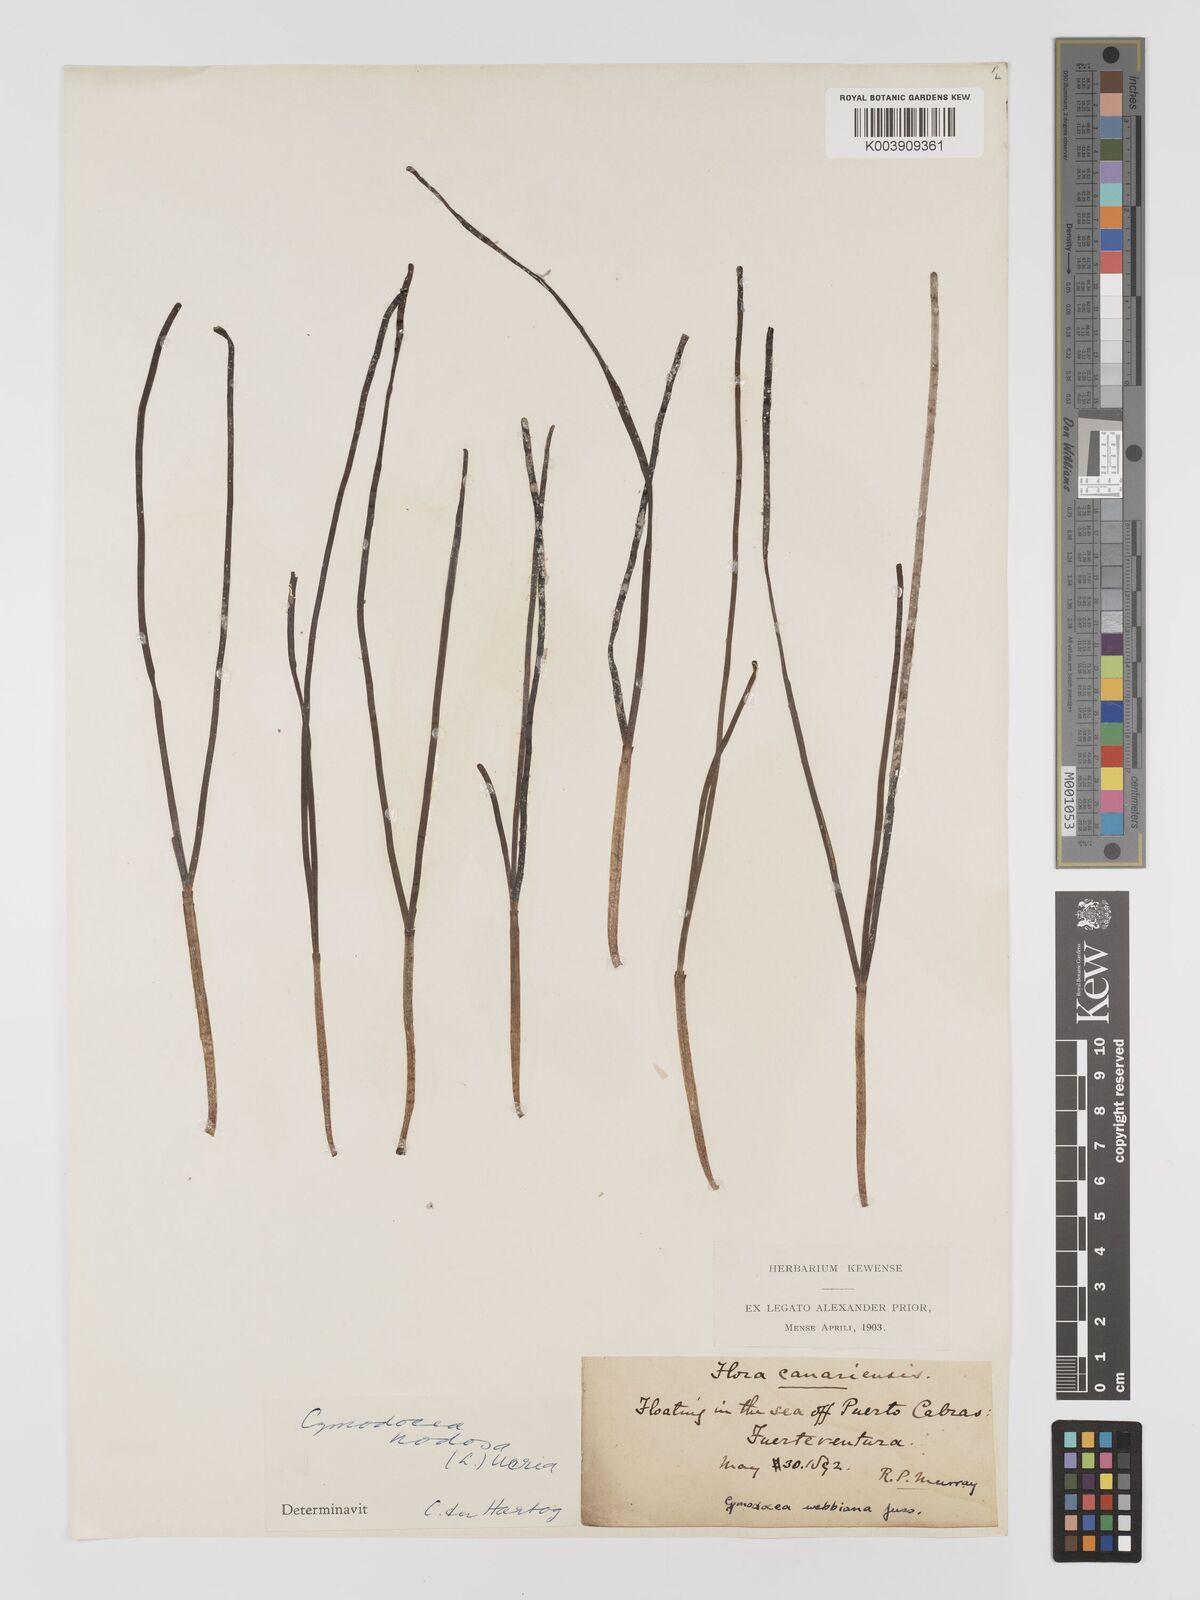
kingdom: Plantae
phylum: Tracheophyta
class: Liliopsida
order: Alismatales
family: Cymodoceaceae
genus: Cymodocea
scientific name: Cymodocea nodosa
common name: Slender seagrass
